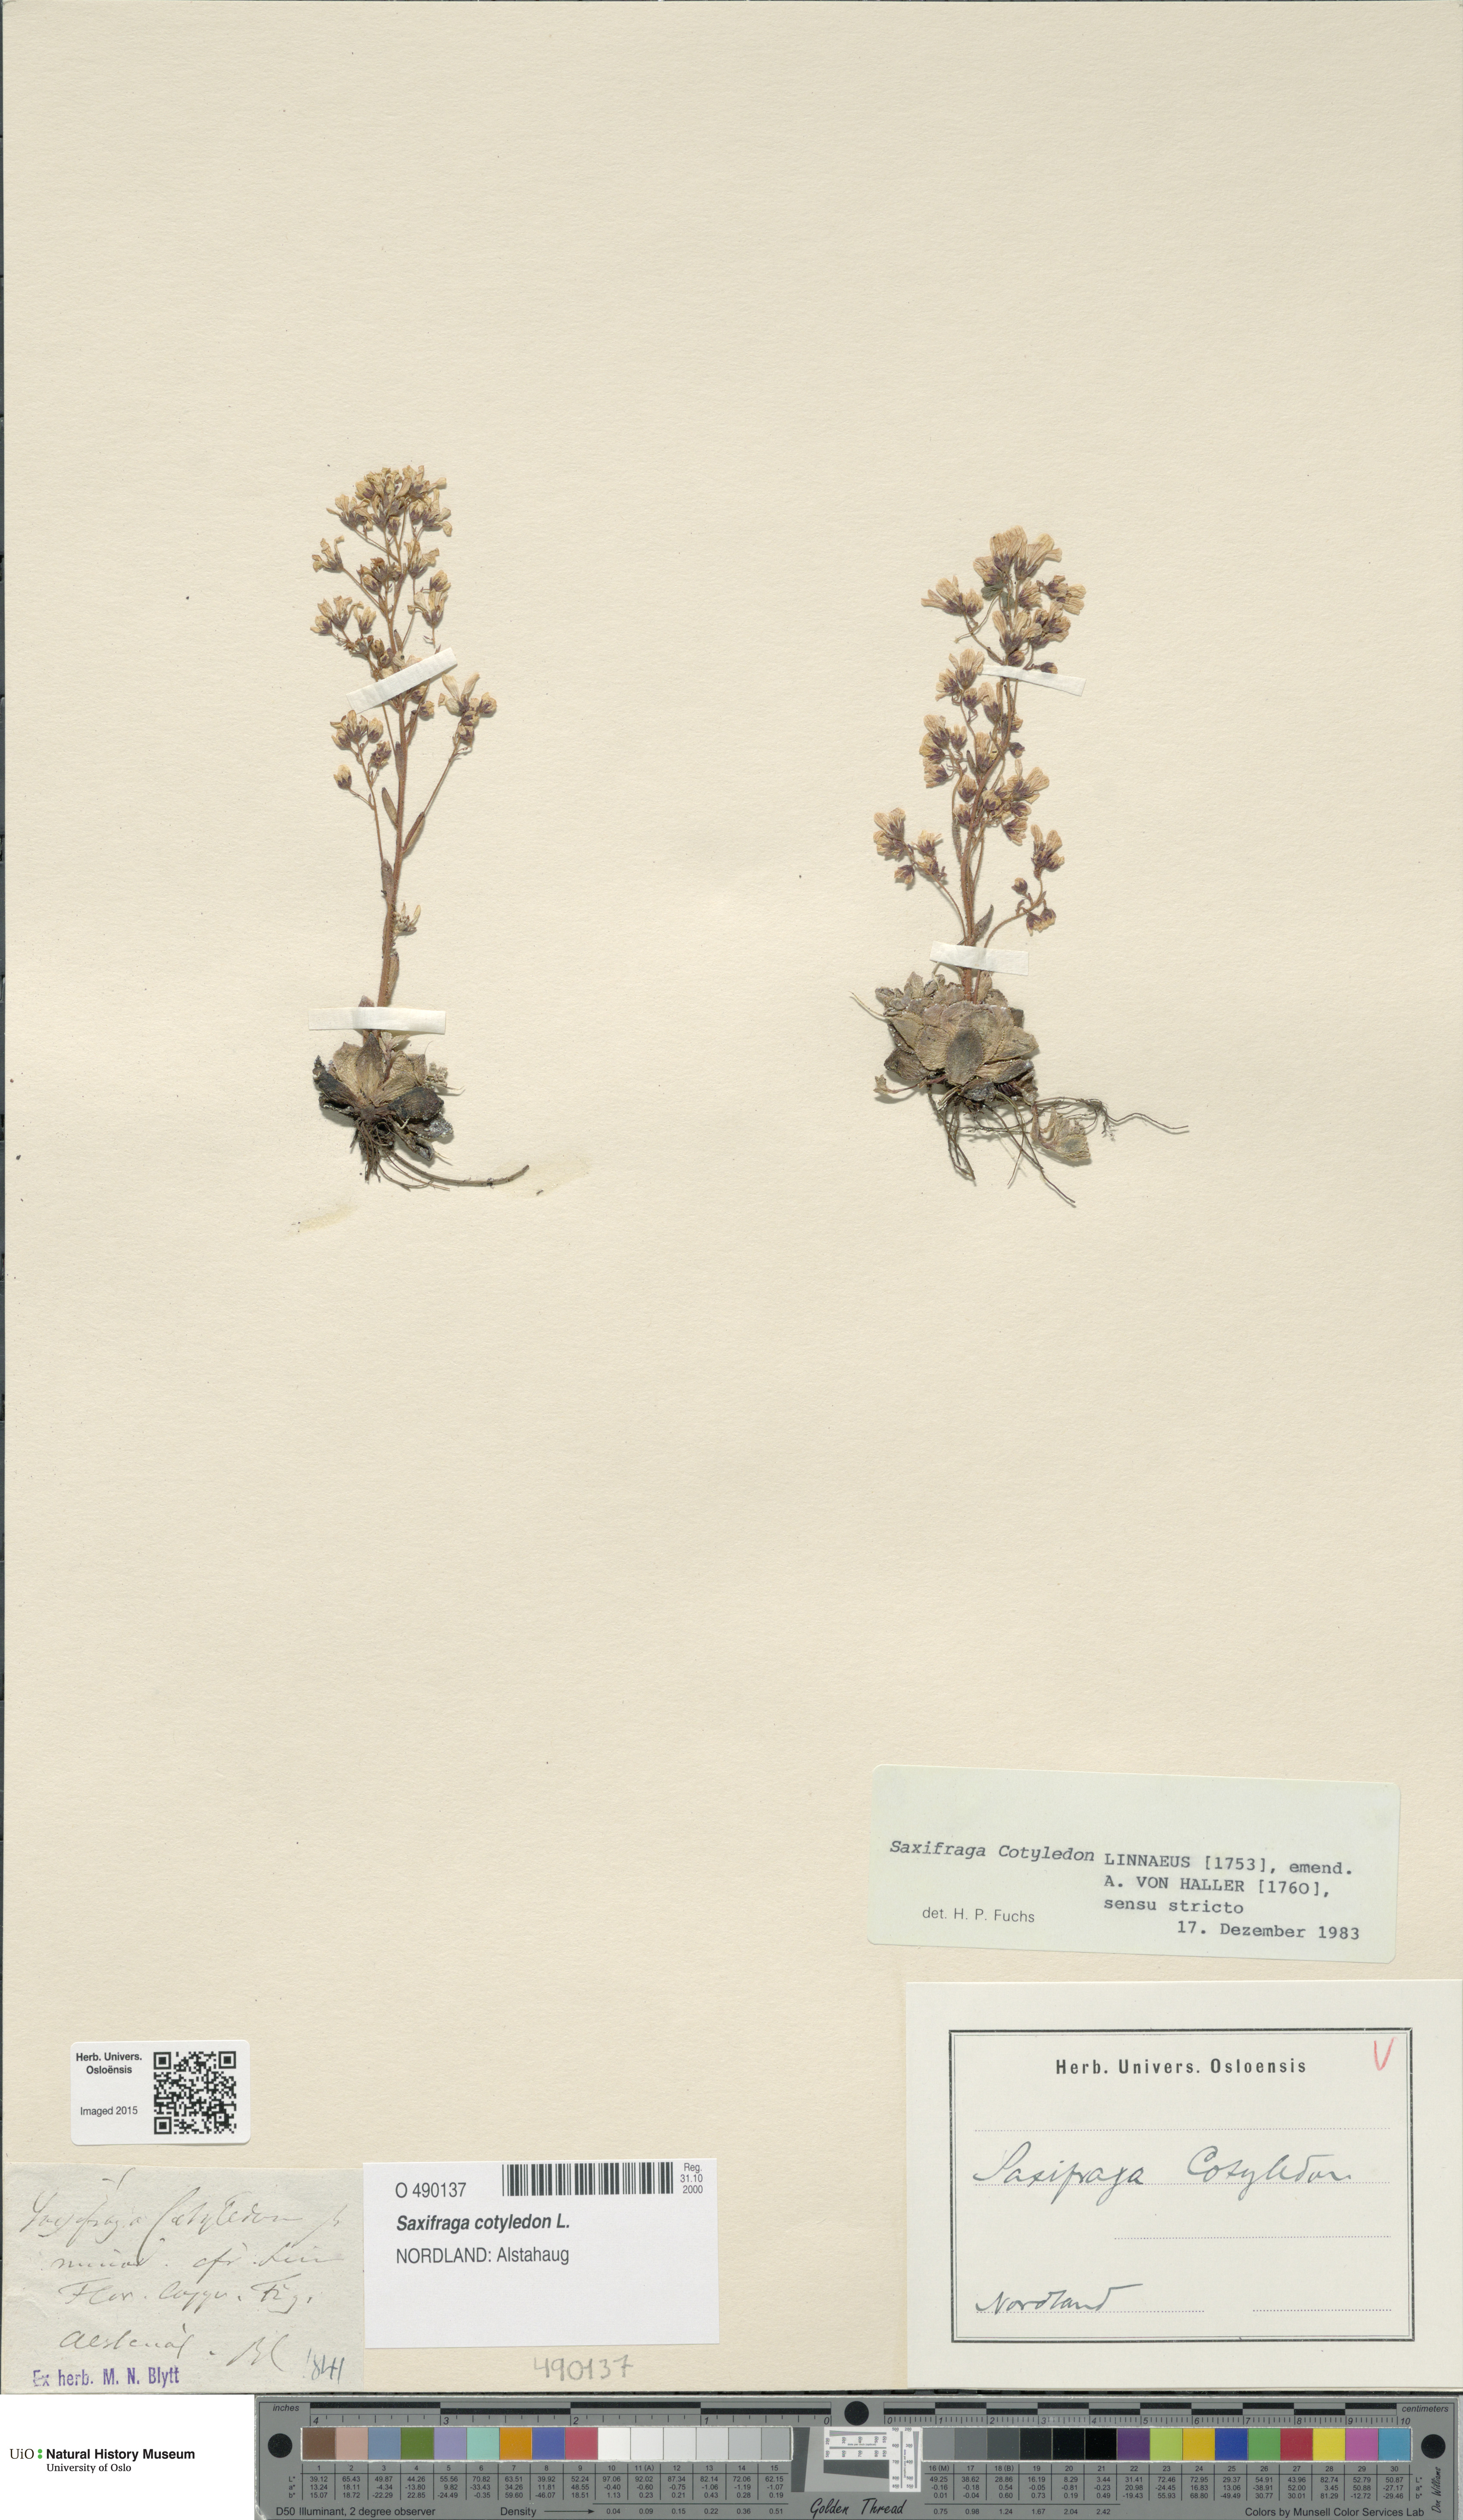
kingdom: Plantae
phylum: Tracheophyta
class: Magnoliopsida
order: Saxifragales
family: Saxifragaceae
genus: Saxifraga
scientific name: Saxifraga cotyledon
